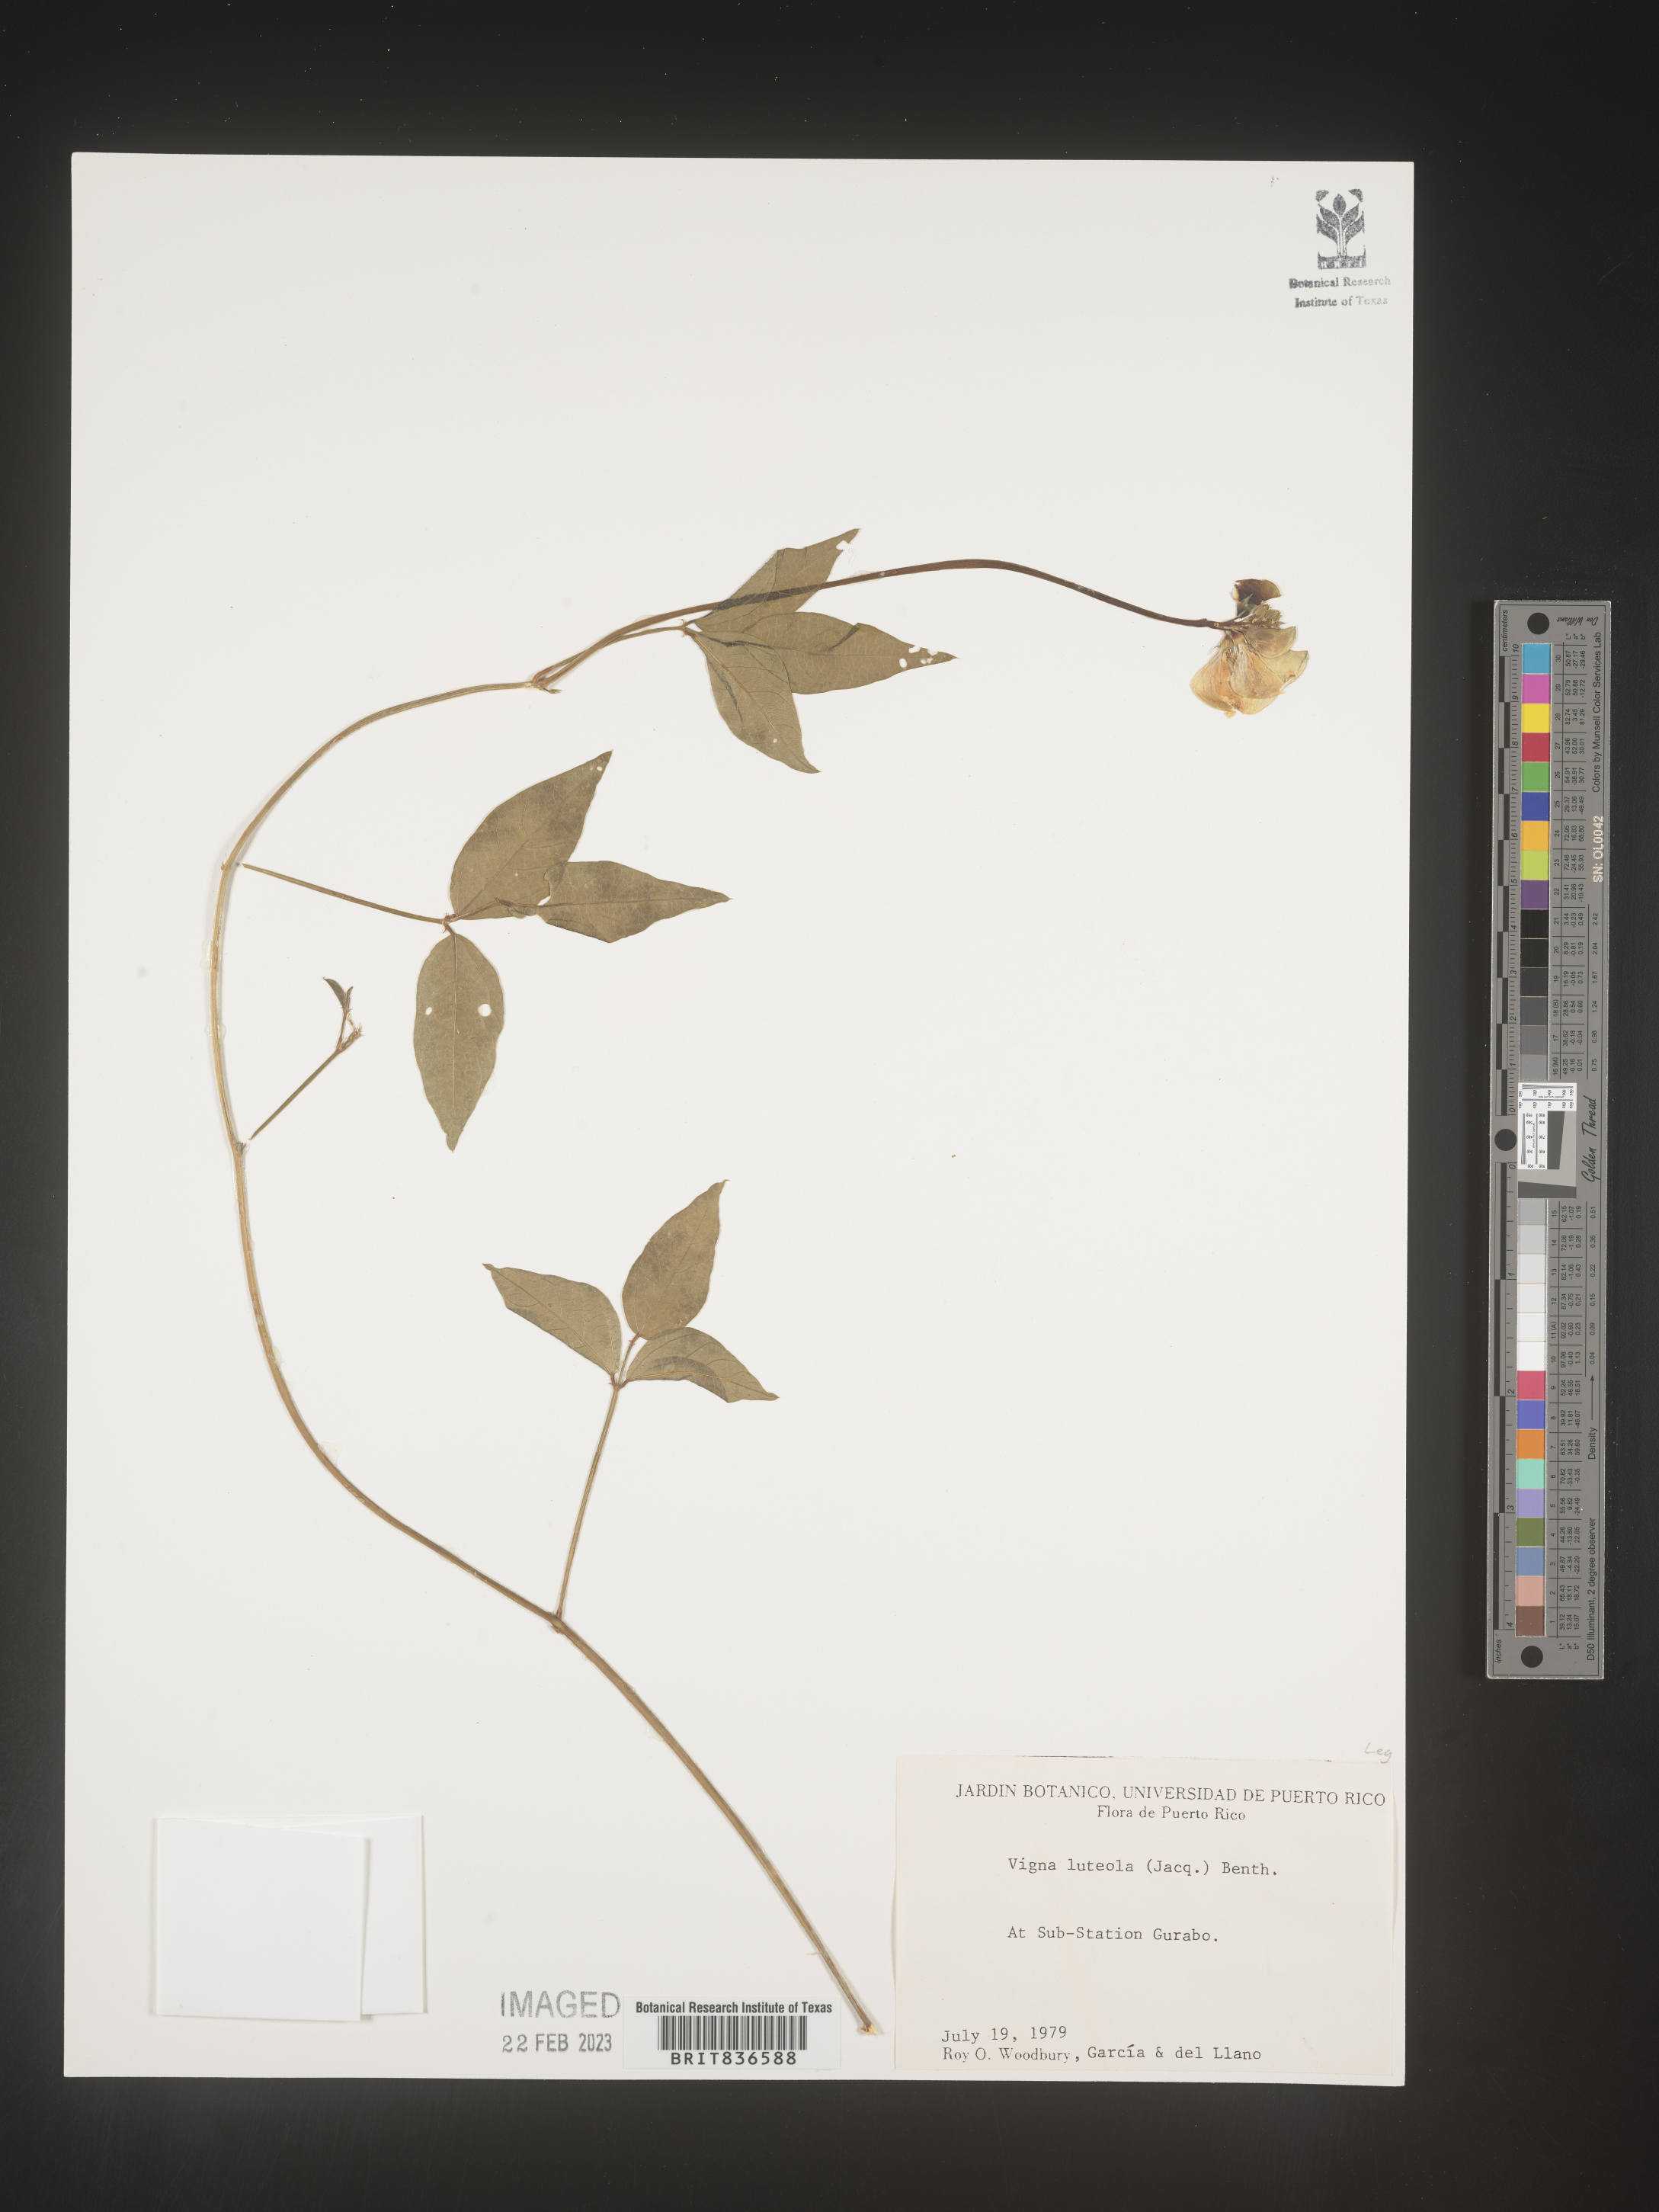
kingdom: Plantae
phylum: Tracheophyta
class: Magnoliopsida
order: Fabales
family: Fabaceae
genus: Vigna
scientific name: Vigna
